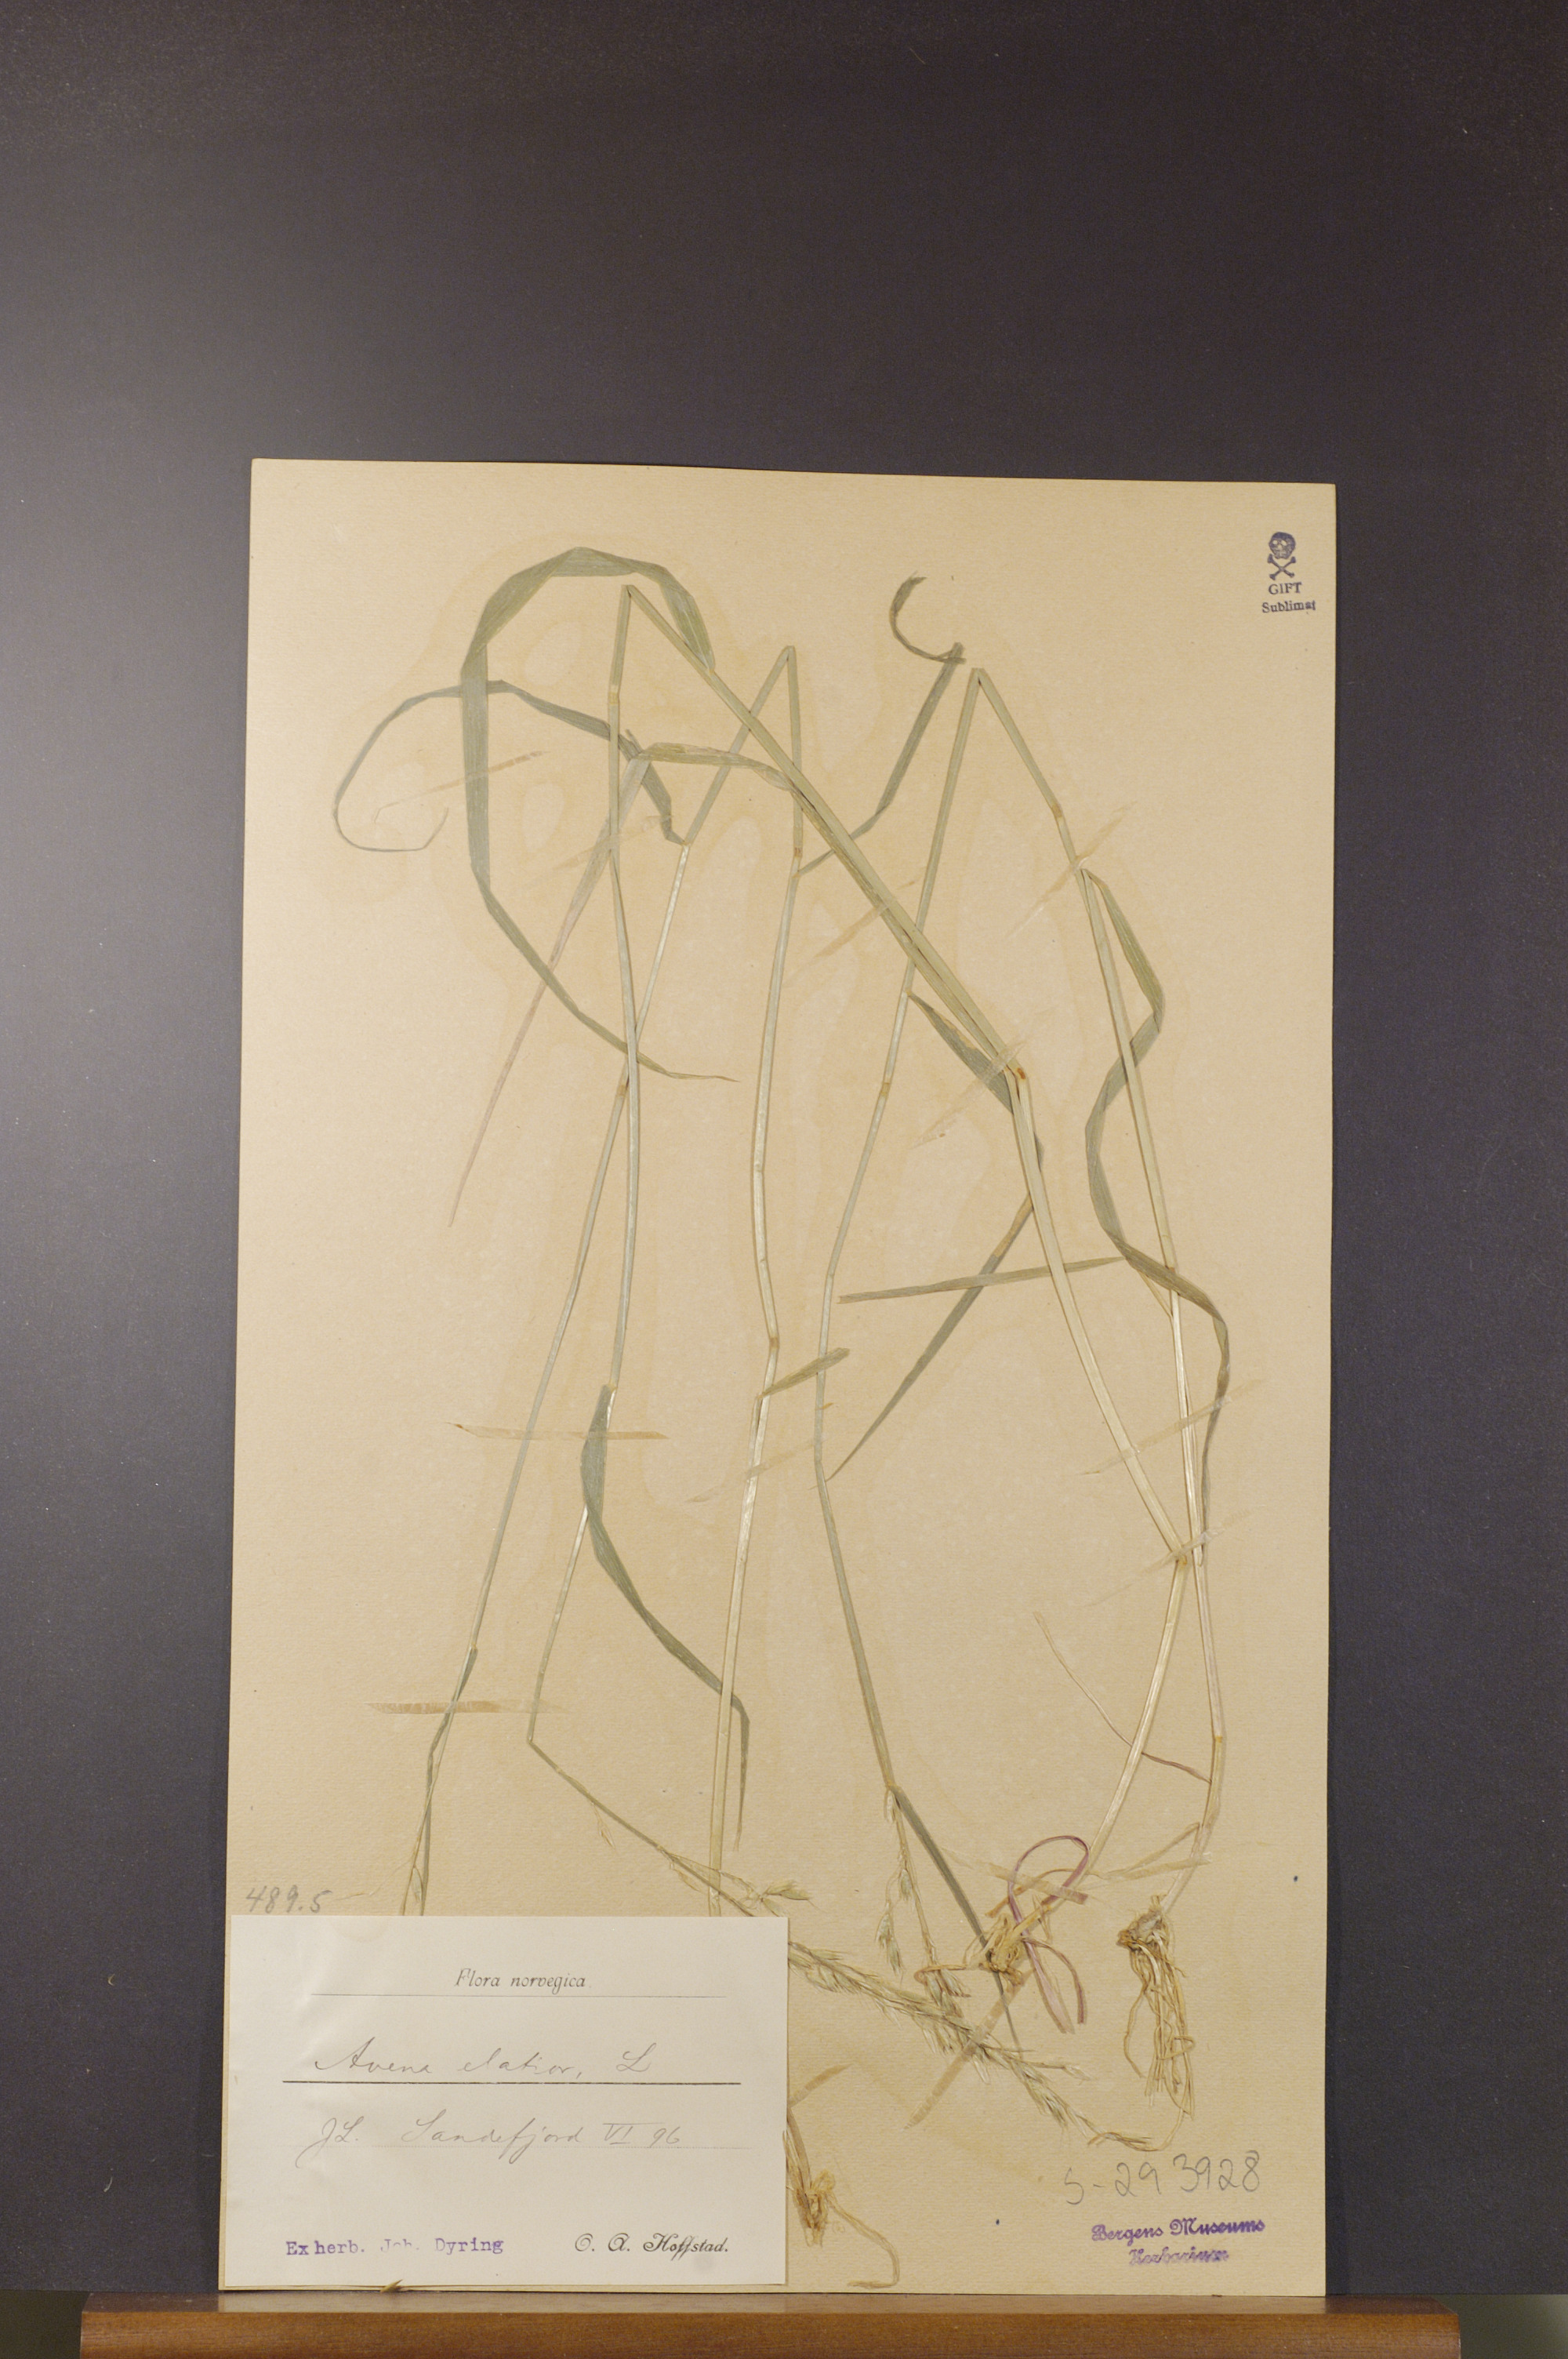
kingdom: Plantae
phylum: Tracheophyta
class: Liliopsida
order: Poales
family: Poaceae
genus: Arrhenatherum
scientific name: Arrhenatherum elatius
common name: Tall oatgrass
